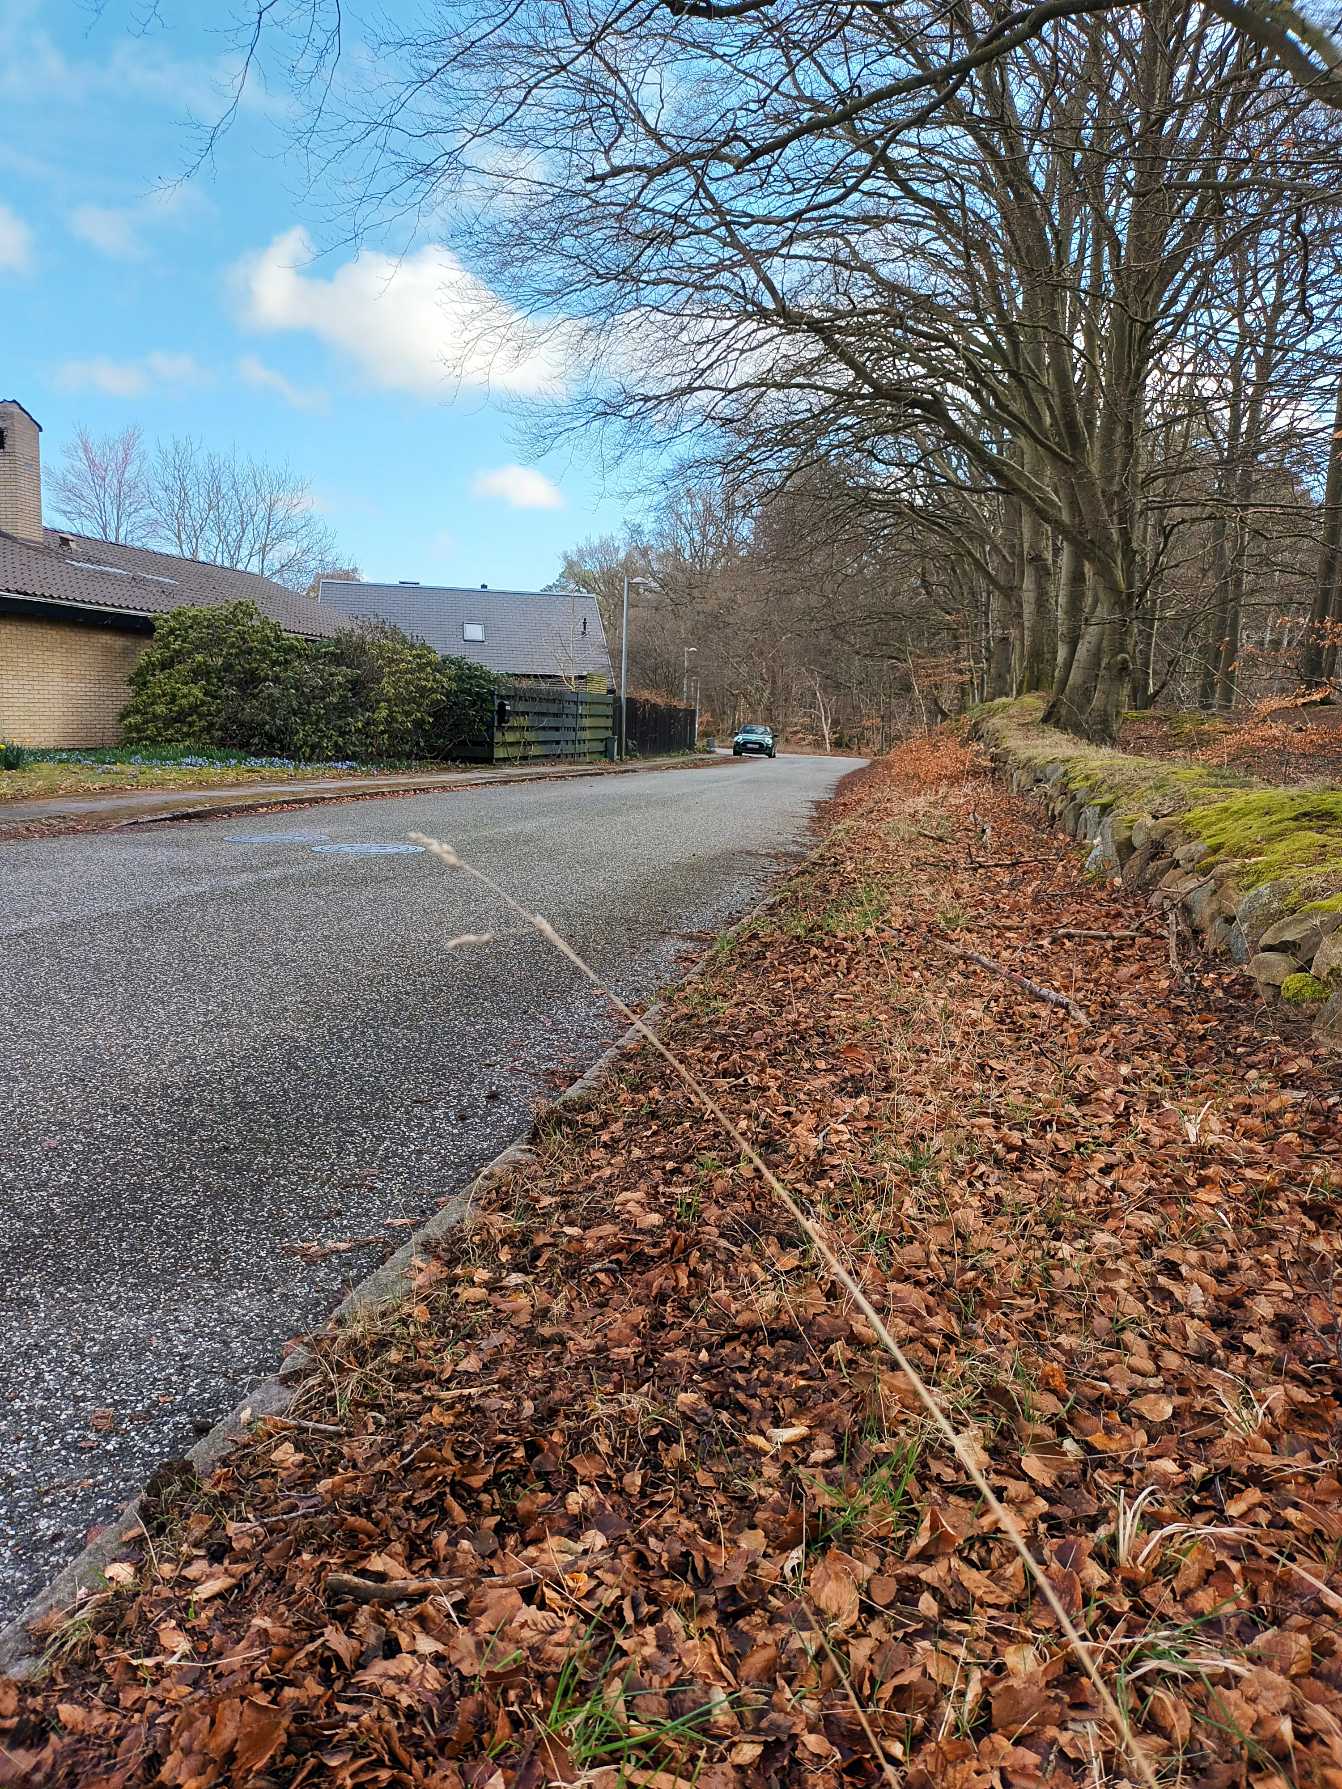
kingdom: Plantae
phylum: Tracheophyta
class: Liliopsida
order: Poales
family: Poaceae
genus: Dactylis
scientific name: Dactylis glomerata
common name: Almindelig hundegræs
